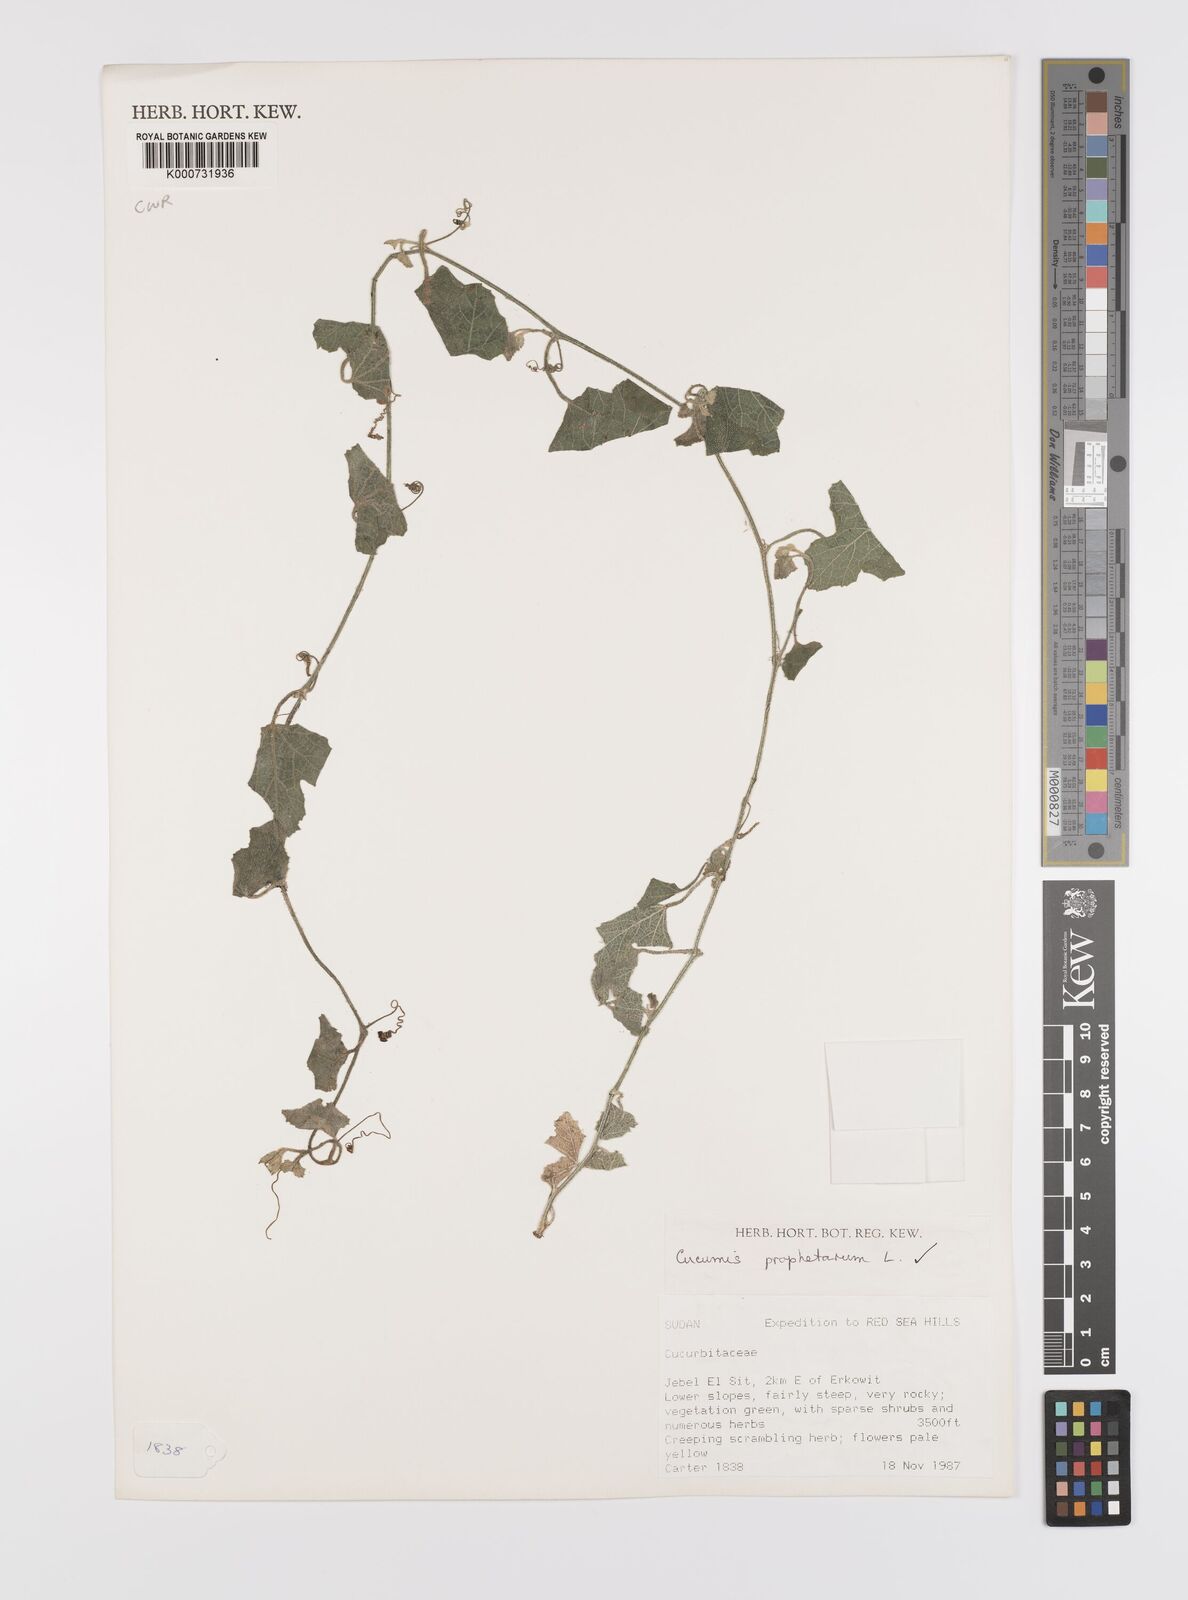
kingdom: Plantae
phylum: Tracheophyta
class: Magnoliopsida
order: Cucurbitales
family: Cucurbitaceae
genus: Cucumis
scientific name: Cucumis prophetarum
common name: Wild cucumber
